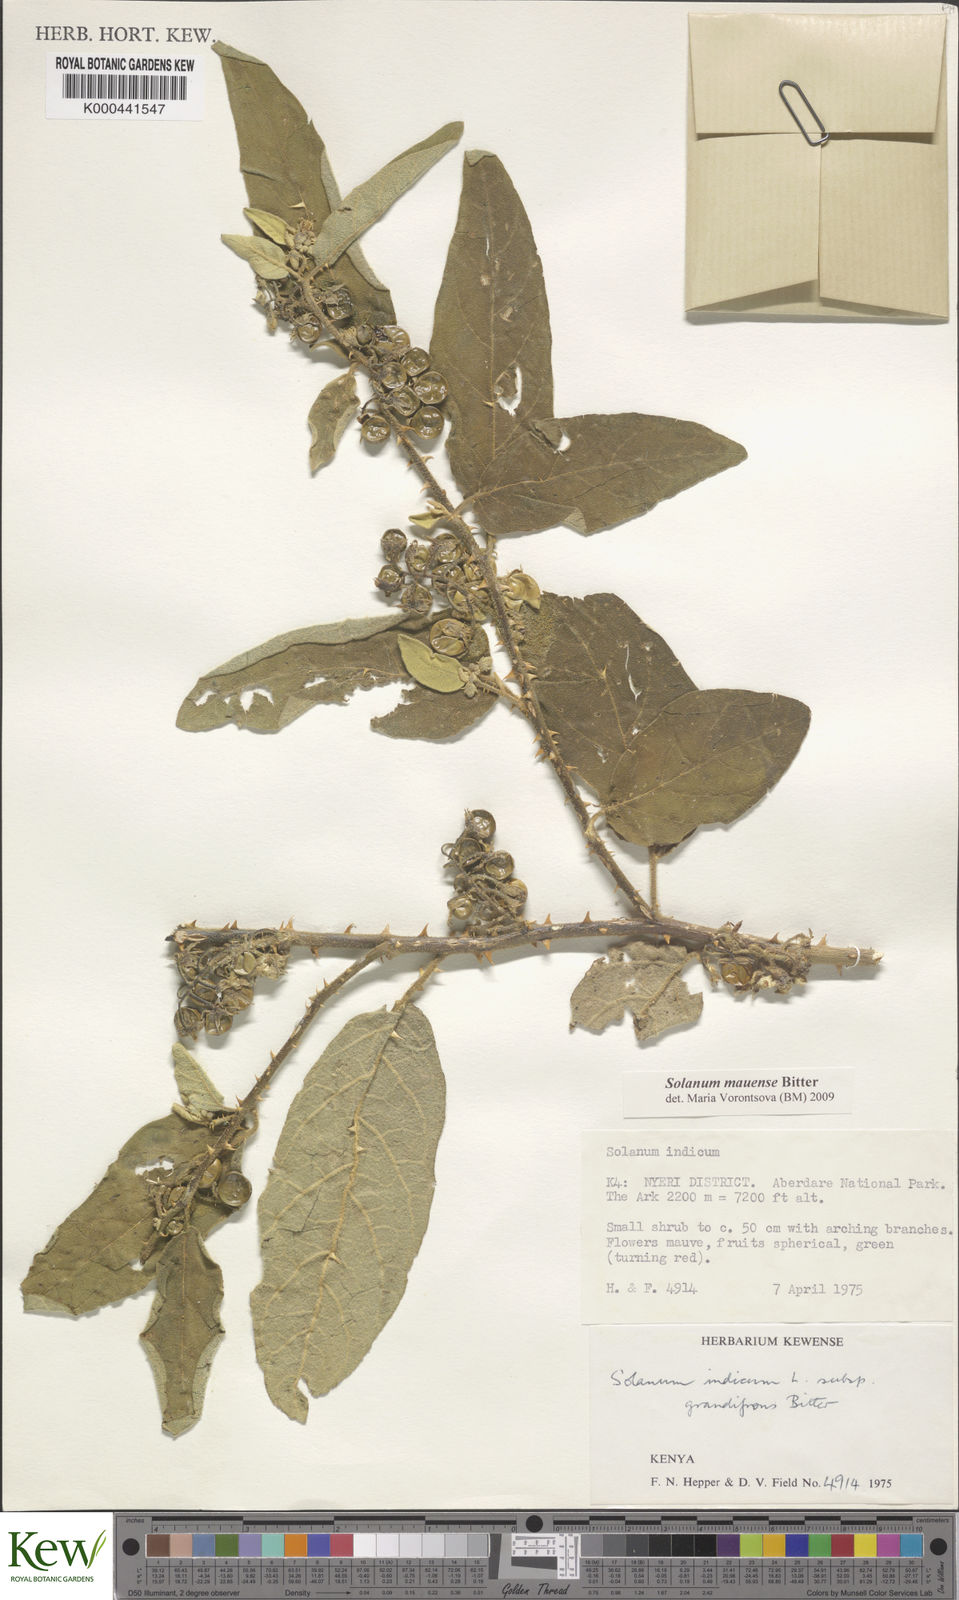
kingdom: Plantae
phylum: Tracheophyta
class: Magnoliopsida
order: Solanales
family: Solanaceae
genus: Solanum
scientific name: Solanum mauense
